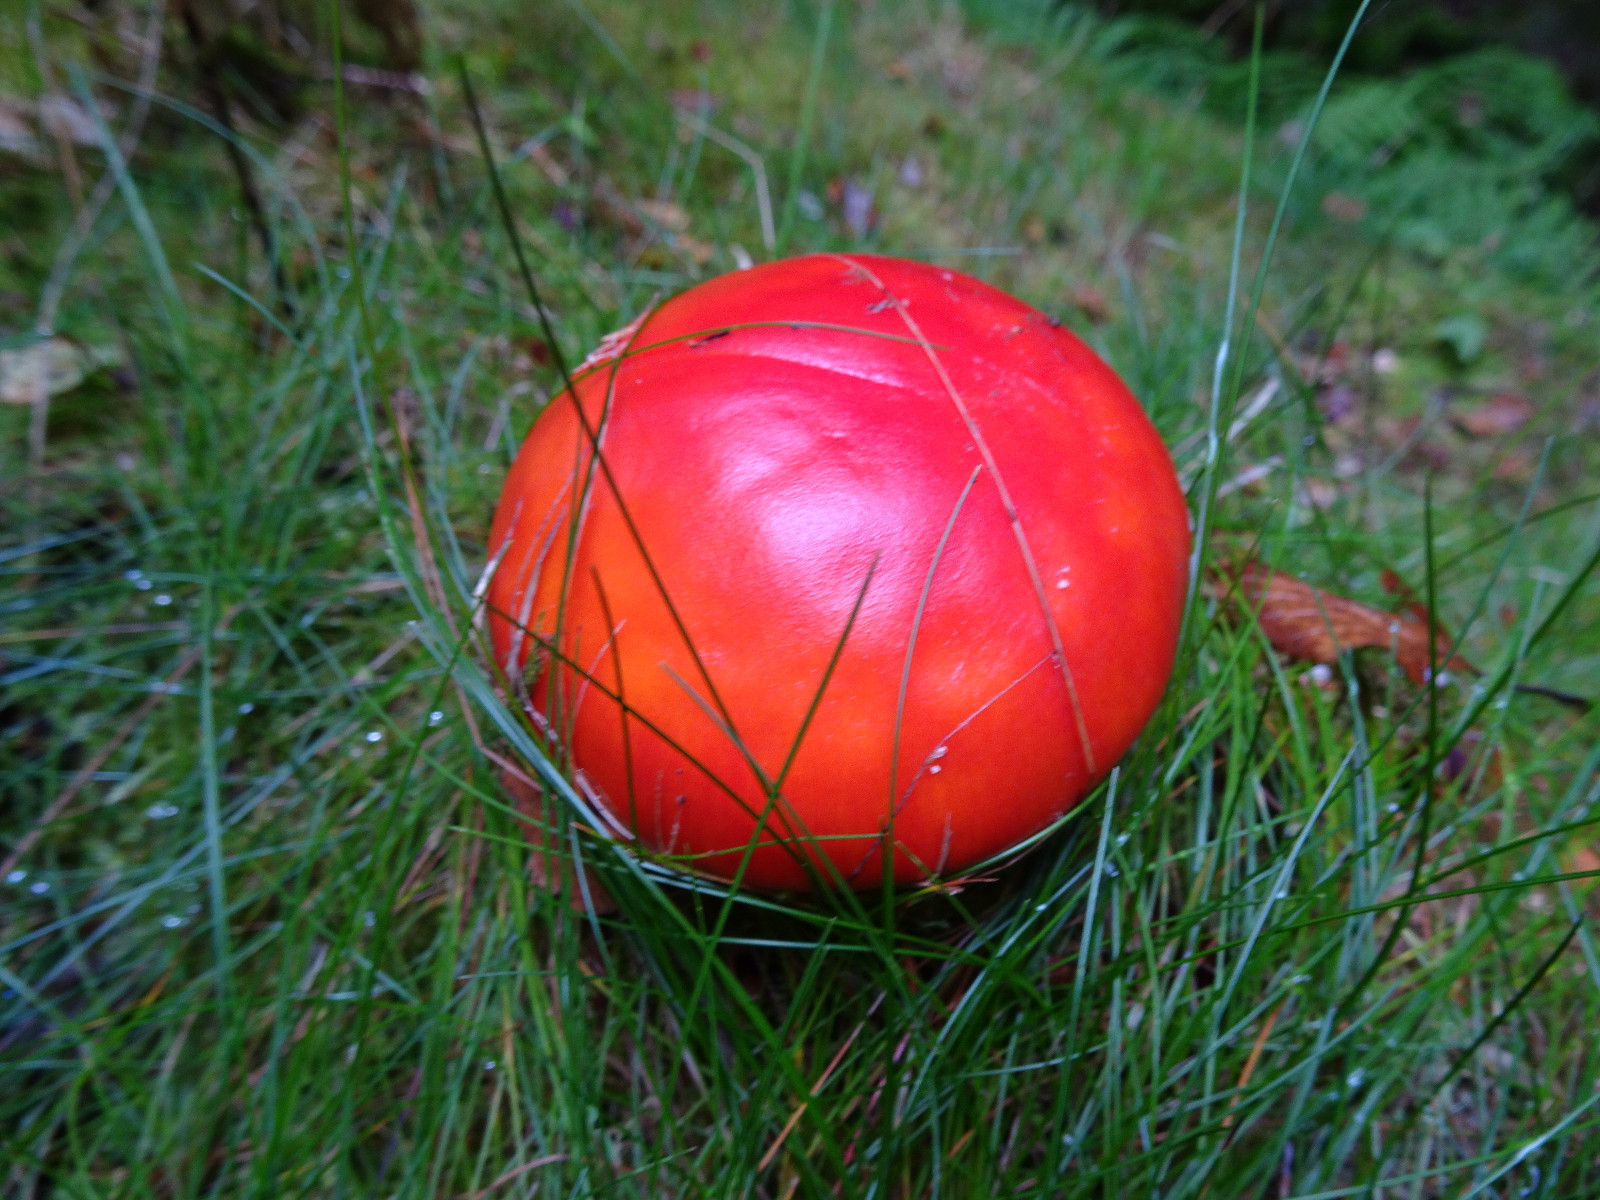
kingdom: Fungi
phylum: Basidiomycota
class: Agaricomycetes
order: Agaricales
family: Amanitaceae
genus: Amanita
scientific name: Amanita muscaria
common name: rød fluesvamp
